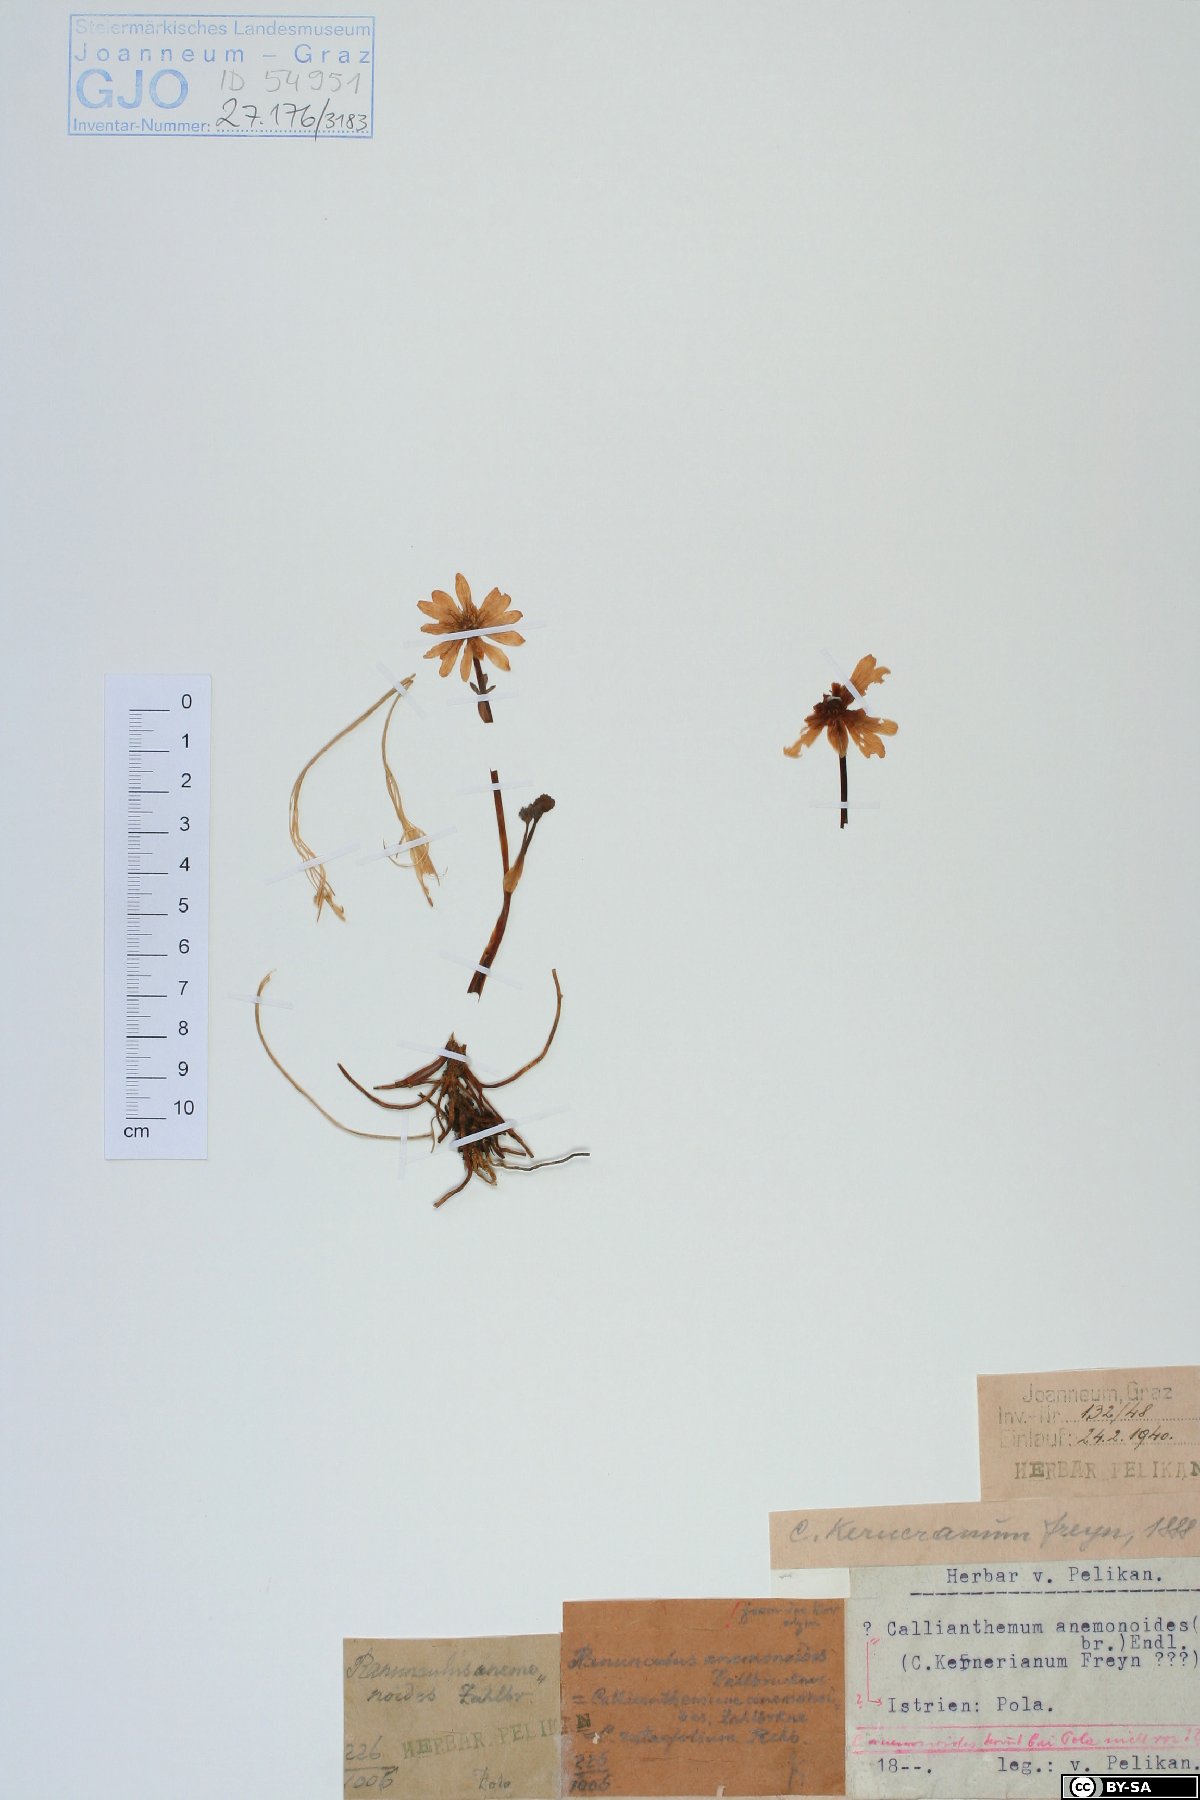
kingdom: Plantae
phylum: Tracheophyta
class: Magnoliopsida
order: Ranunculales
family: Ranunculaceae
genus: Callianthemum
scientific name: Callianthemum anemonoides
